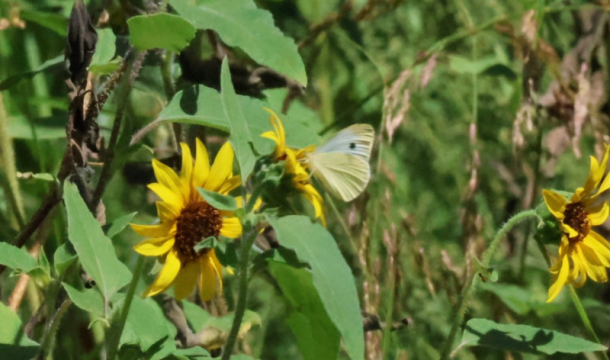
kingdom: Animalia
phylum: Arthropoda
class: Insecta
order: Lepidoptera
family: Pieridae
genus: Pieris
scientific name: Pieris rapae
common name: Cabbage White
